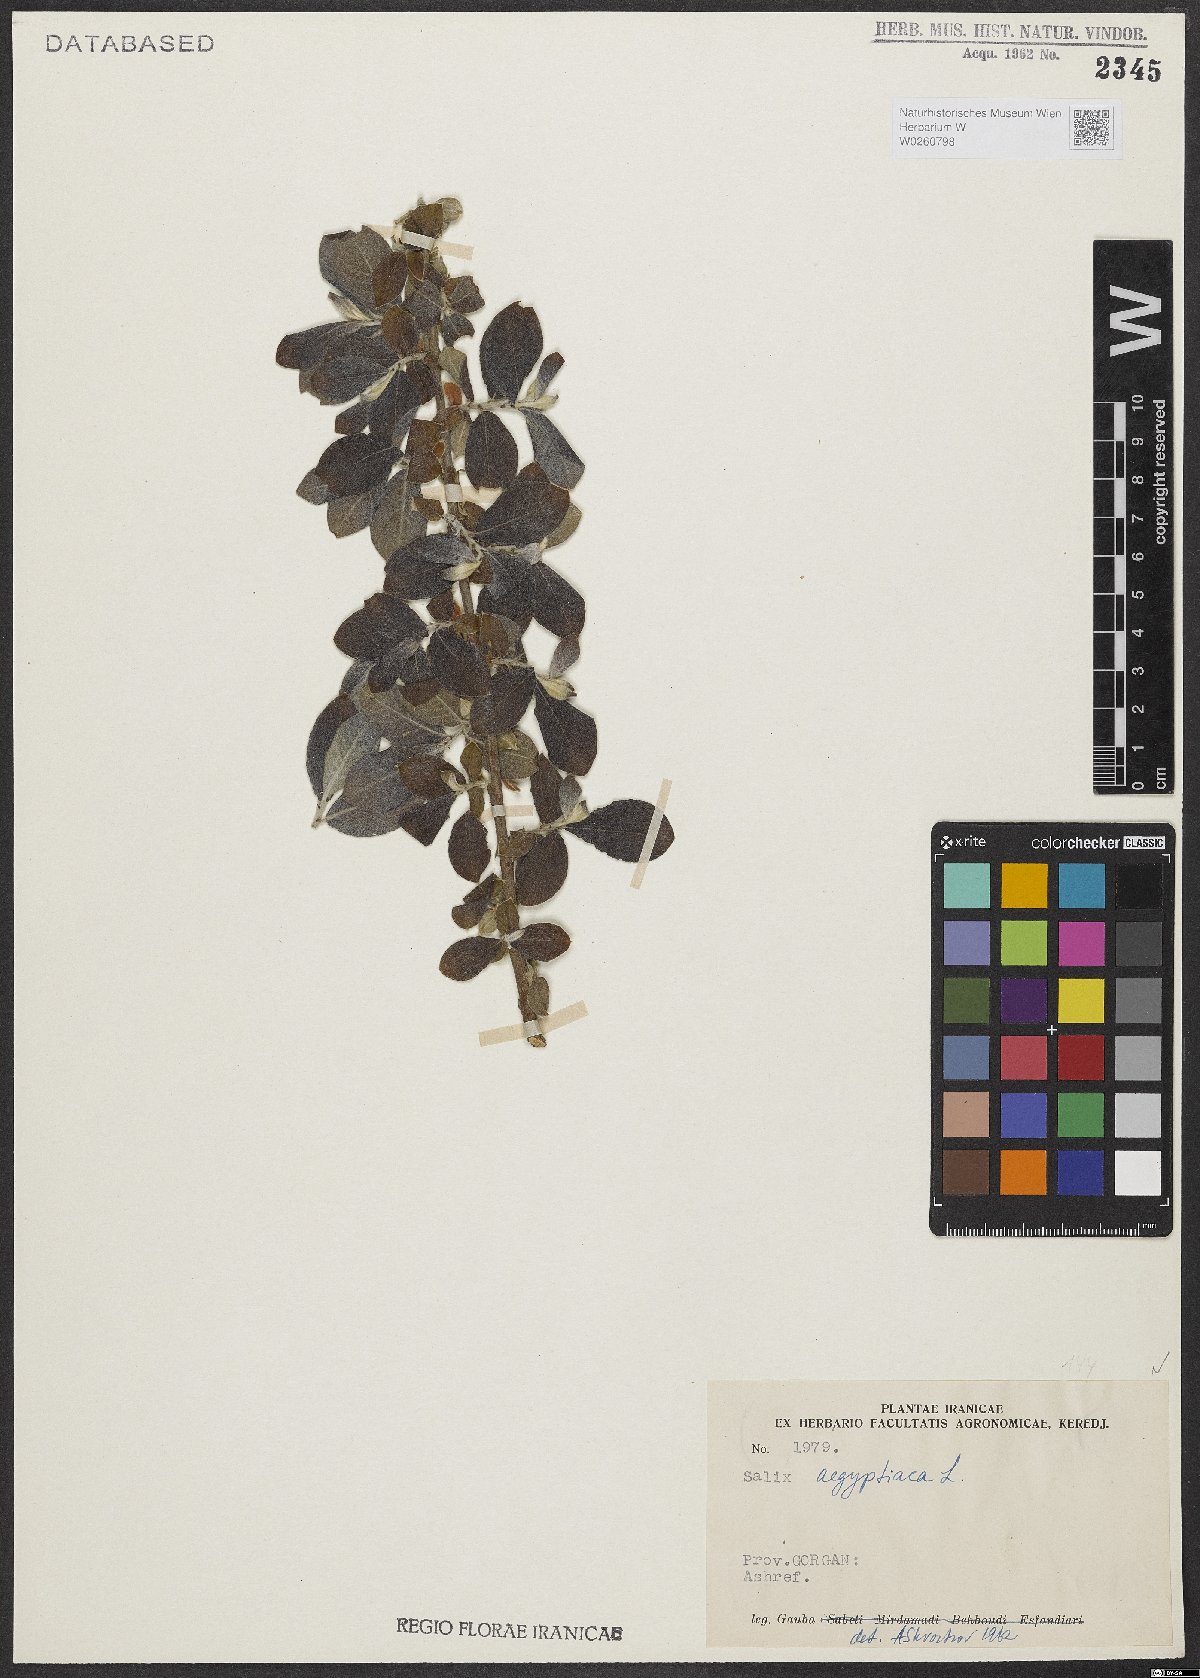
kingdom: Plantae
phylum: Tracheophyta
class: Magnoliopsida
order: Malpighiales
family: Salicaceae
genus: Salix
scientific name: Salix aegyptiaca
